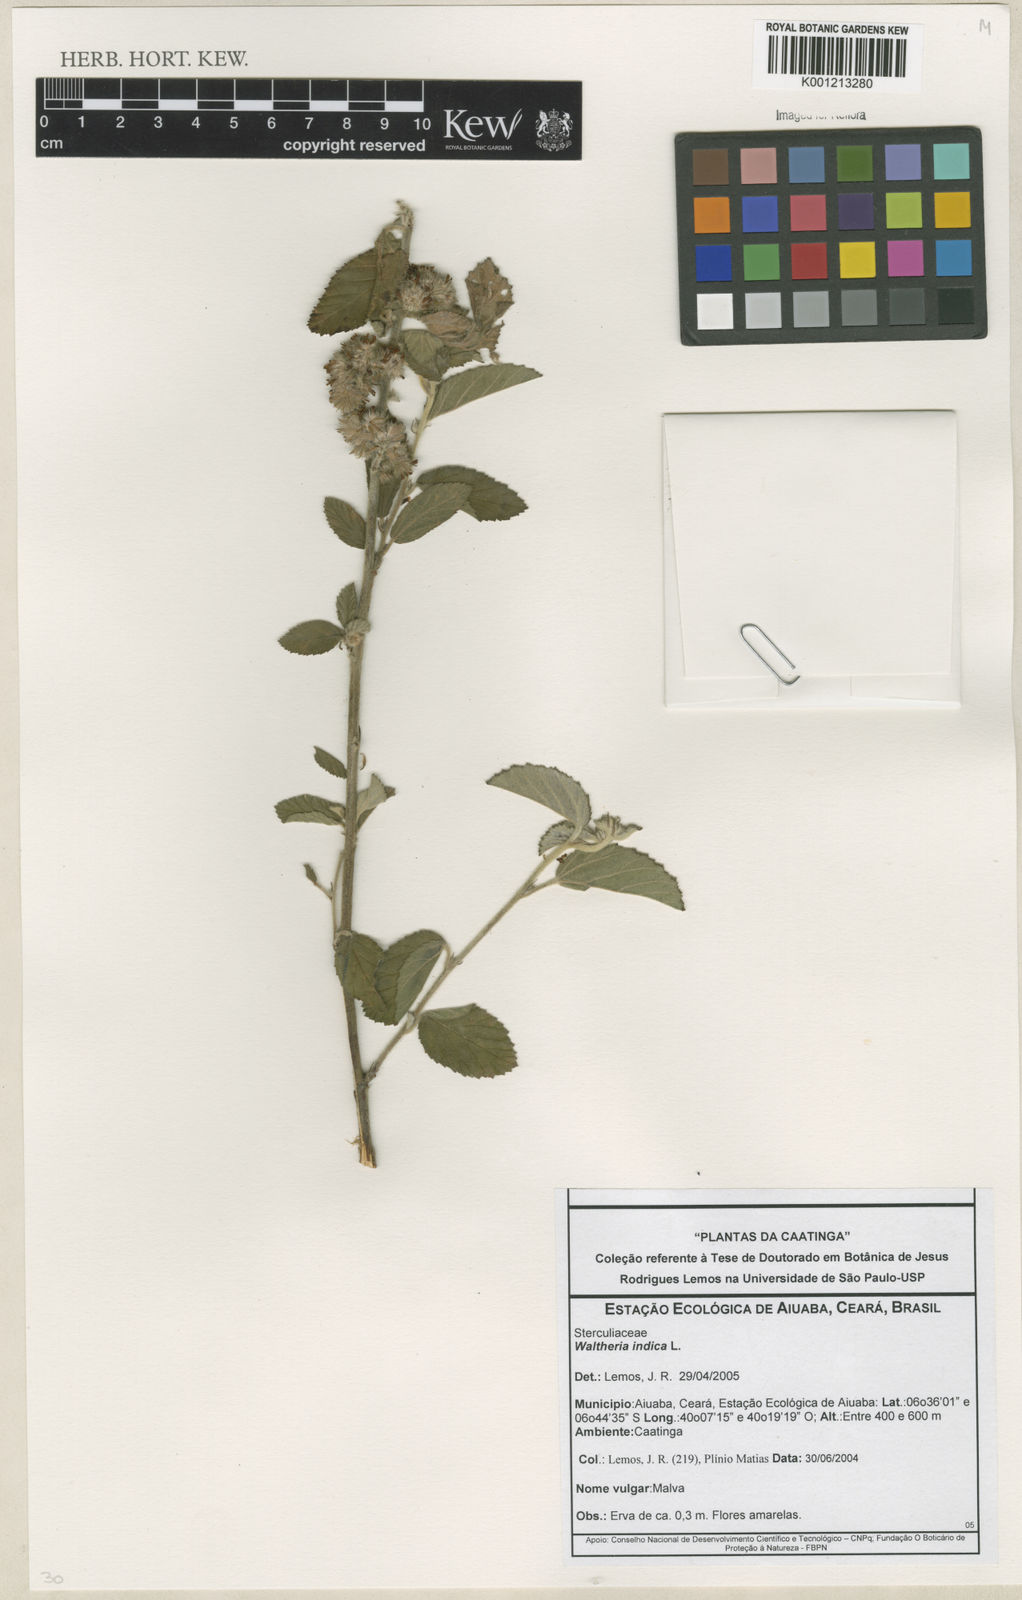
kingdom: Plantae
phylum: Tracheophyta
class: Magnoliopsida
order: Malvales
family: Malvaceae
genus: Waltheria
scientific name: Waltheria indica
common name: Leather-coat
